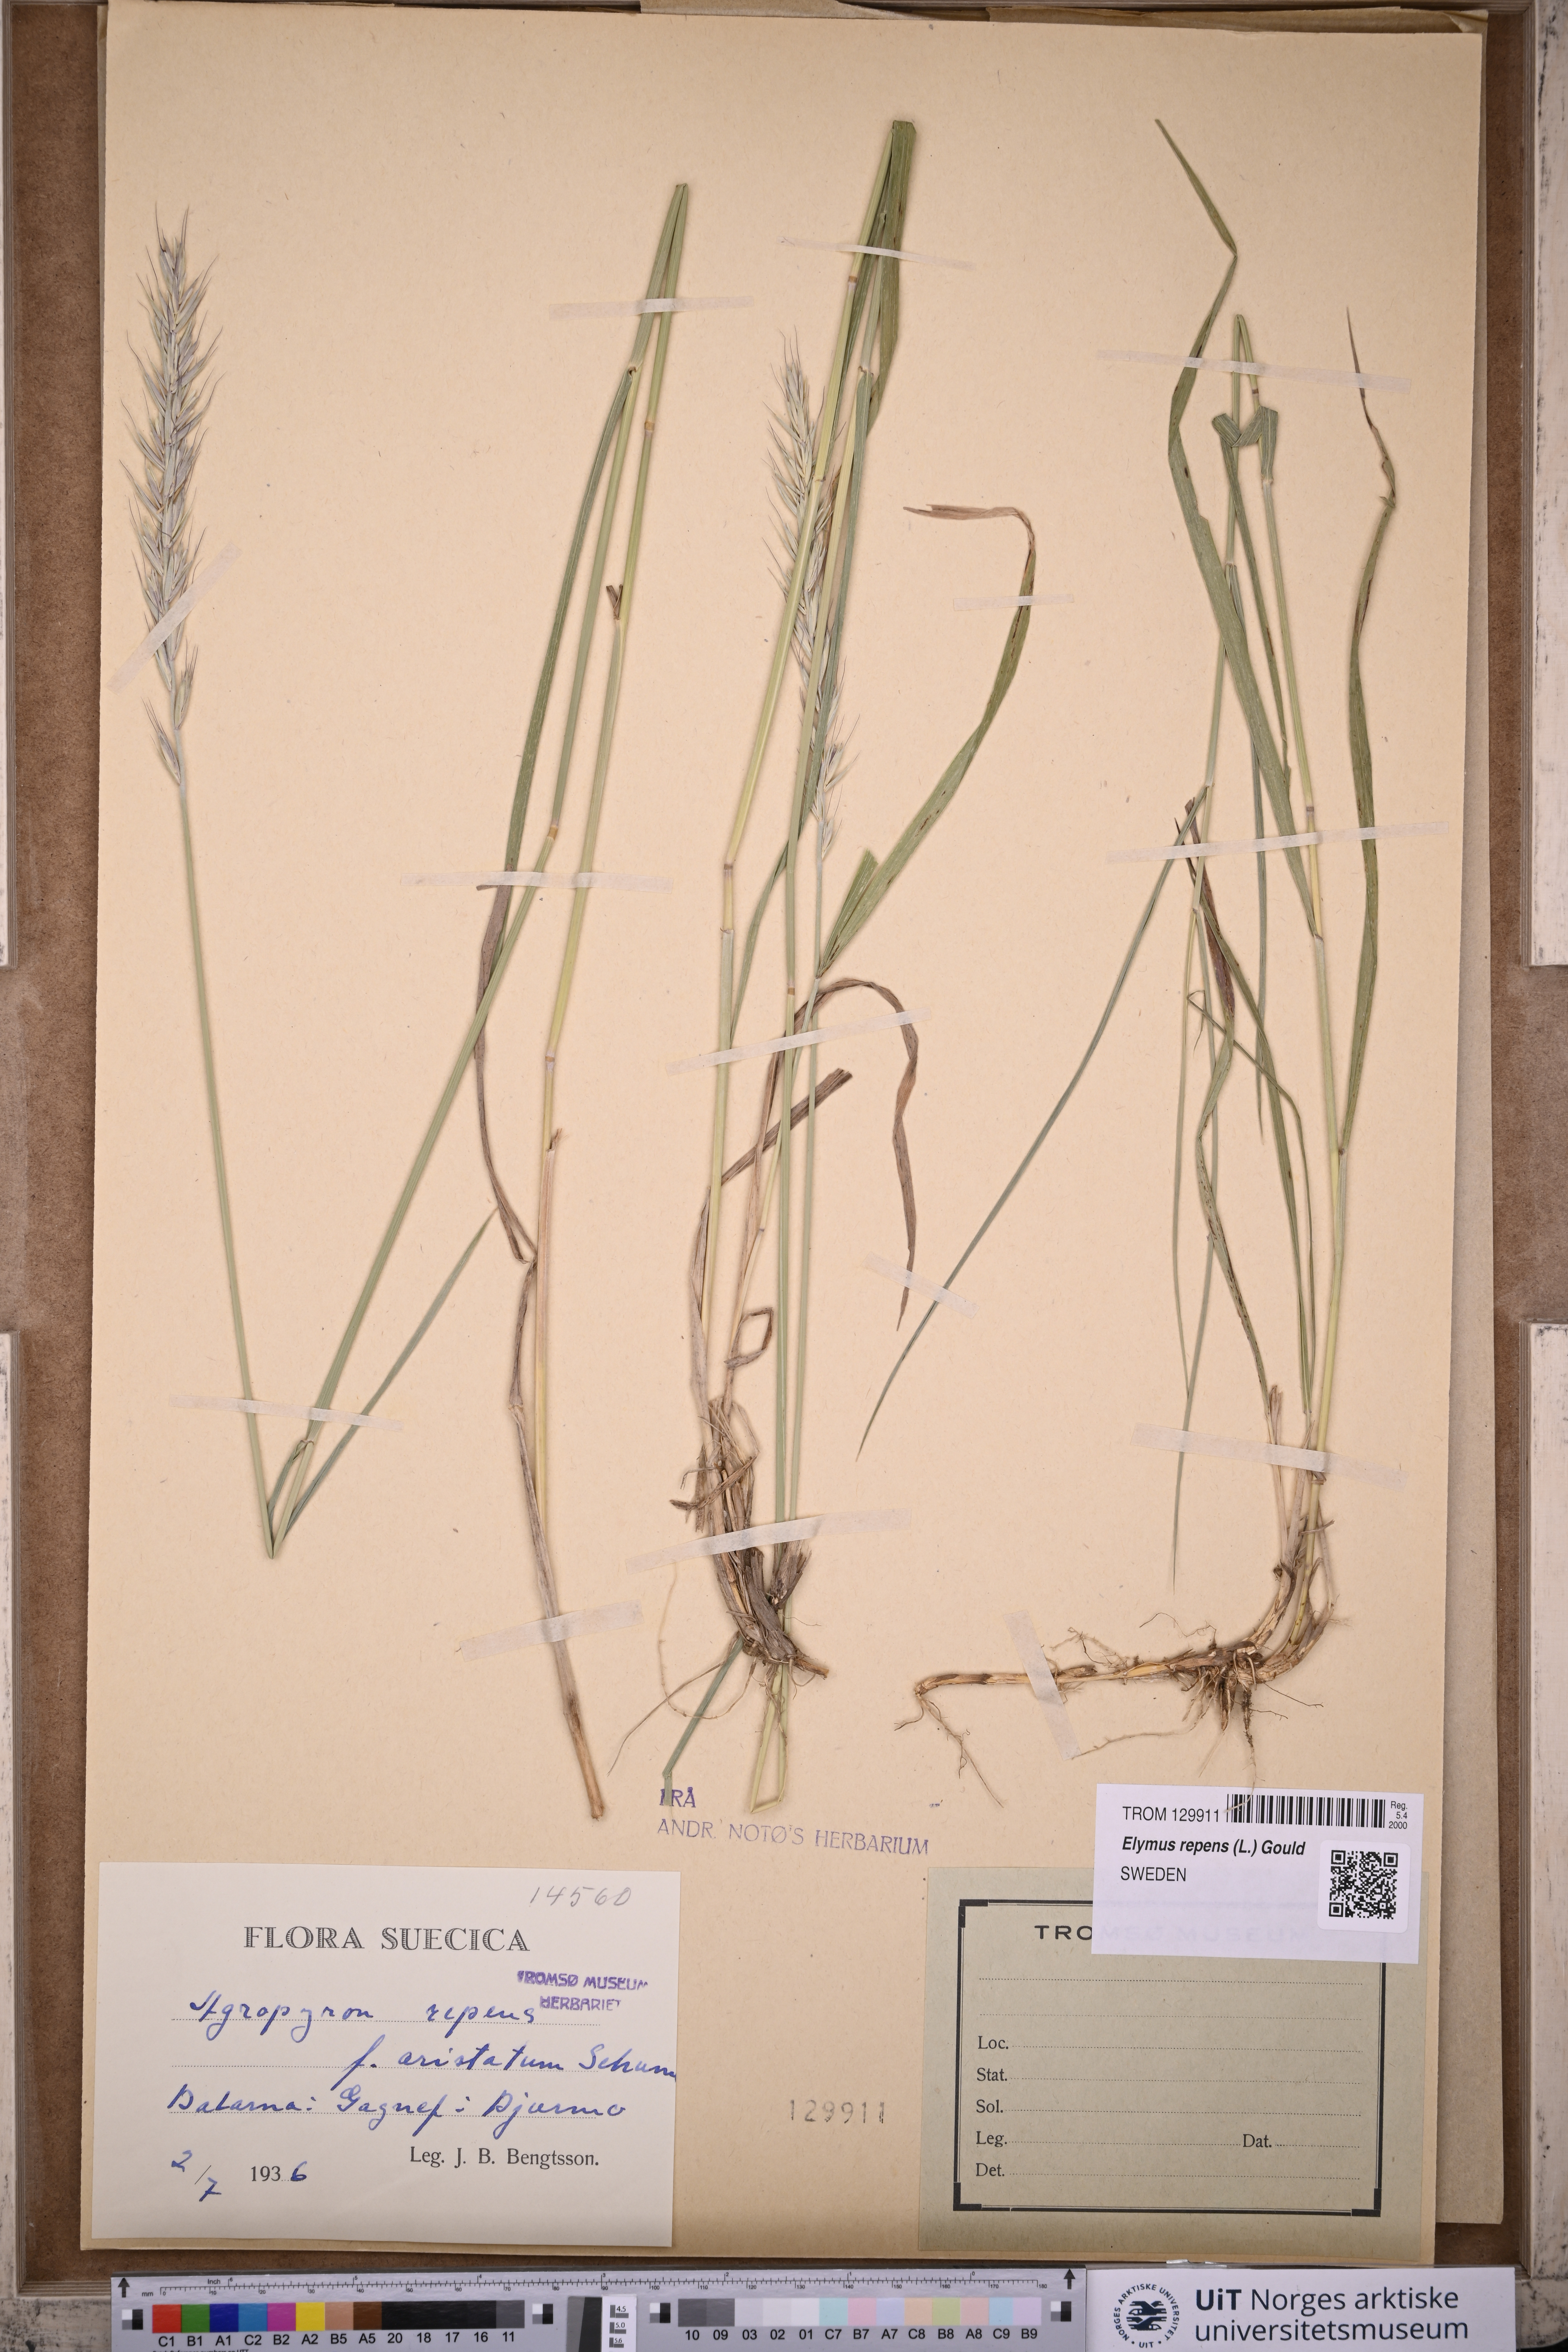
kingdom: Plantae
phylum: Tracheophyta
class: Liliopsida
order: Poales
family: Poaceae
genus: Elymus
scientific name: Elymus repens
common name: Quackgrass
